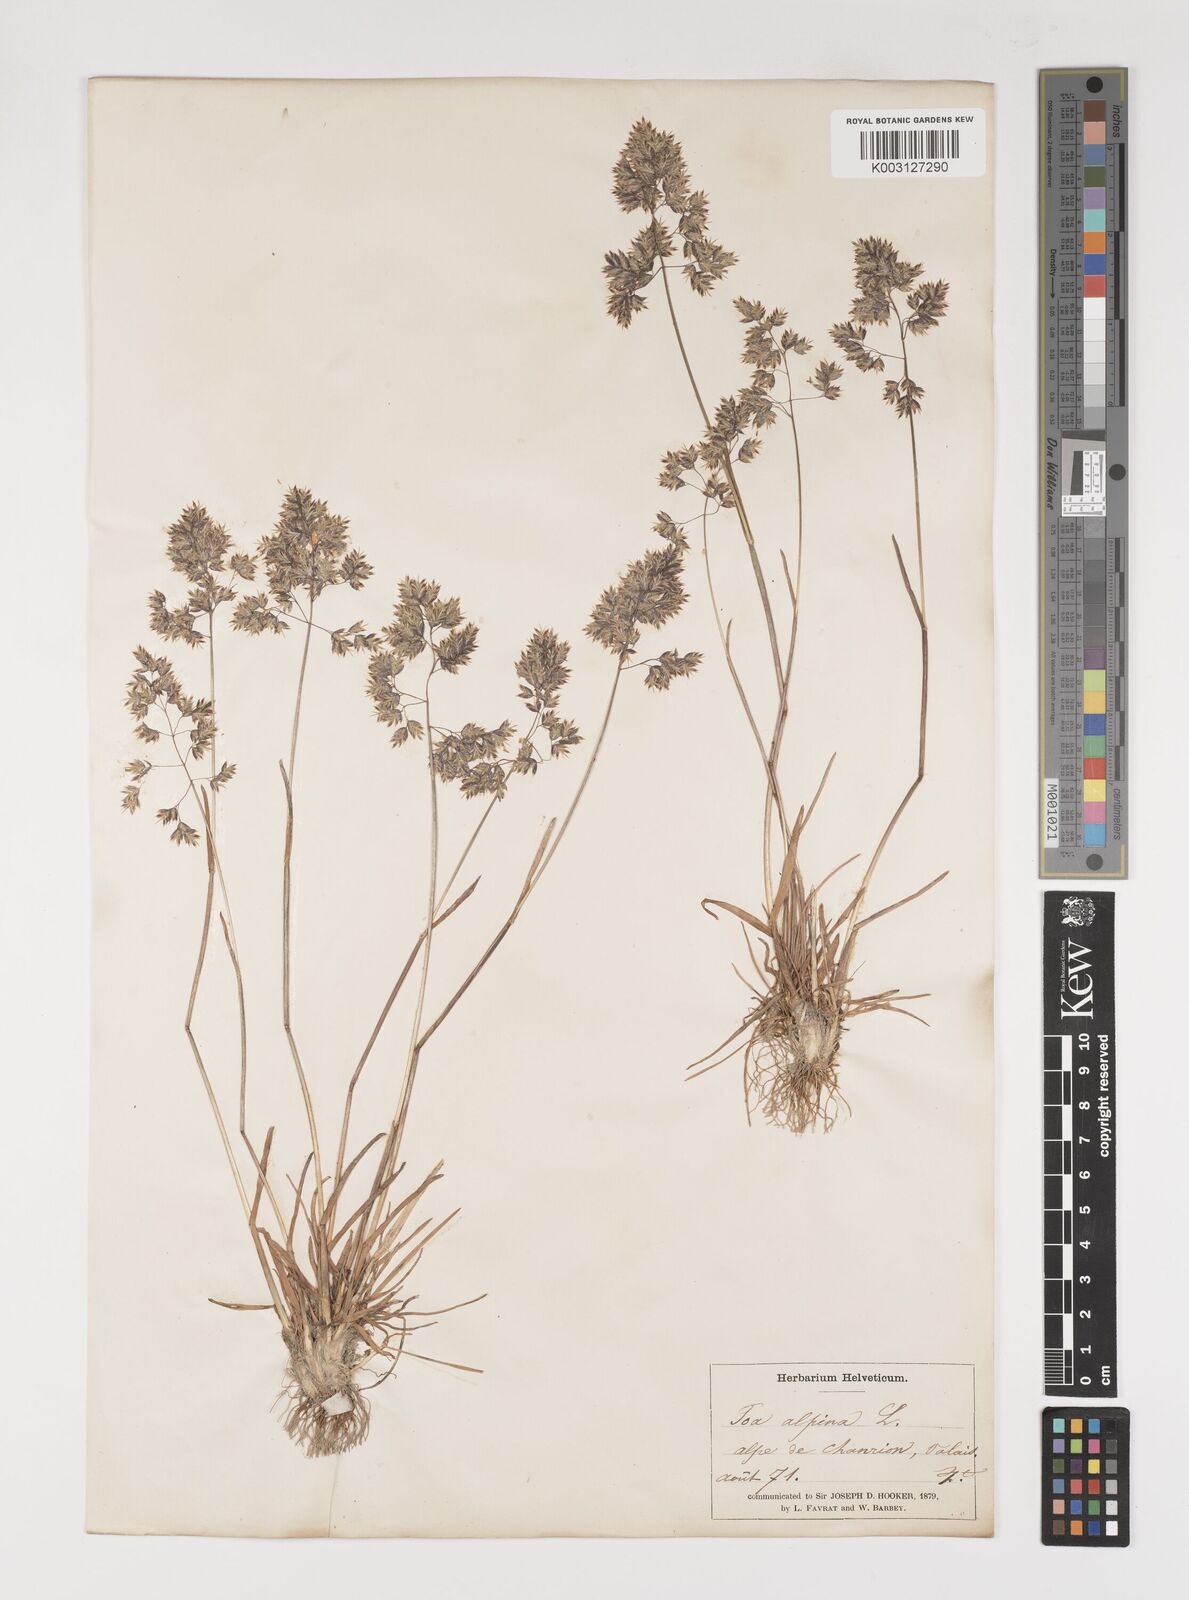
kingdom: Plantae
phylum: Tracheophyta
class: Liliopsida
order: Poales
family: Poaceae
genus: Poa
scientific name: Poa alpina
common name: Alpine bluegrass
